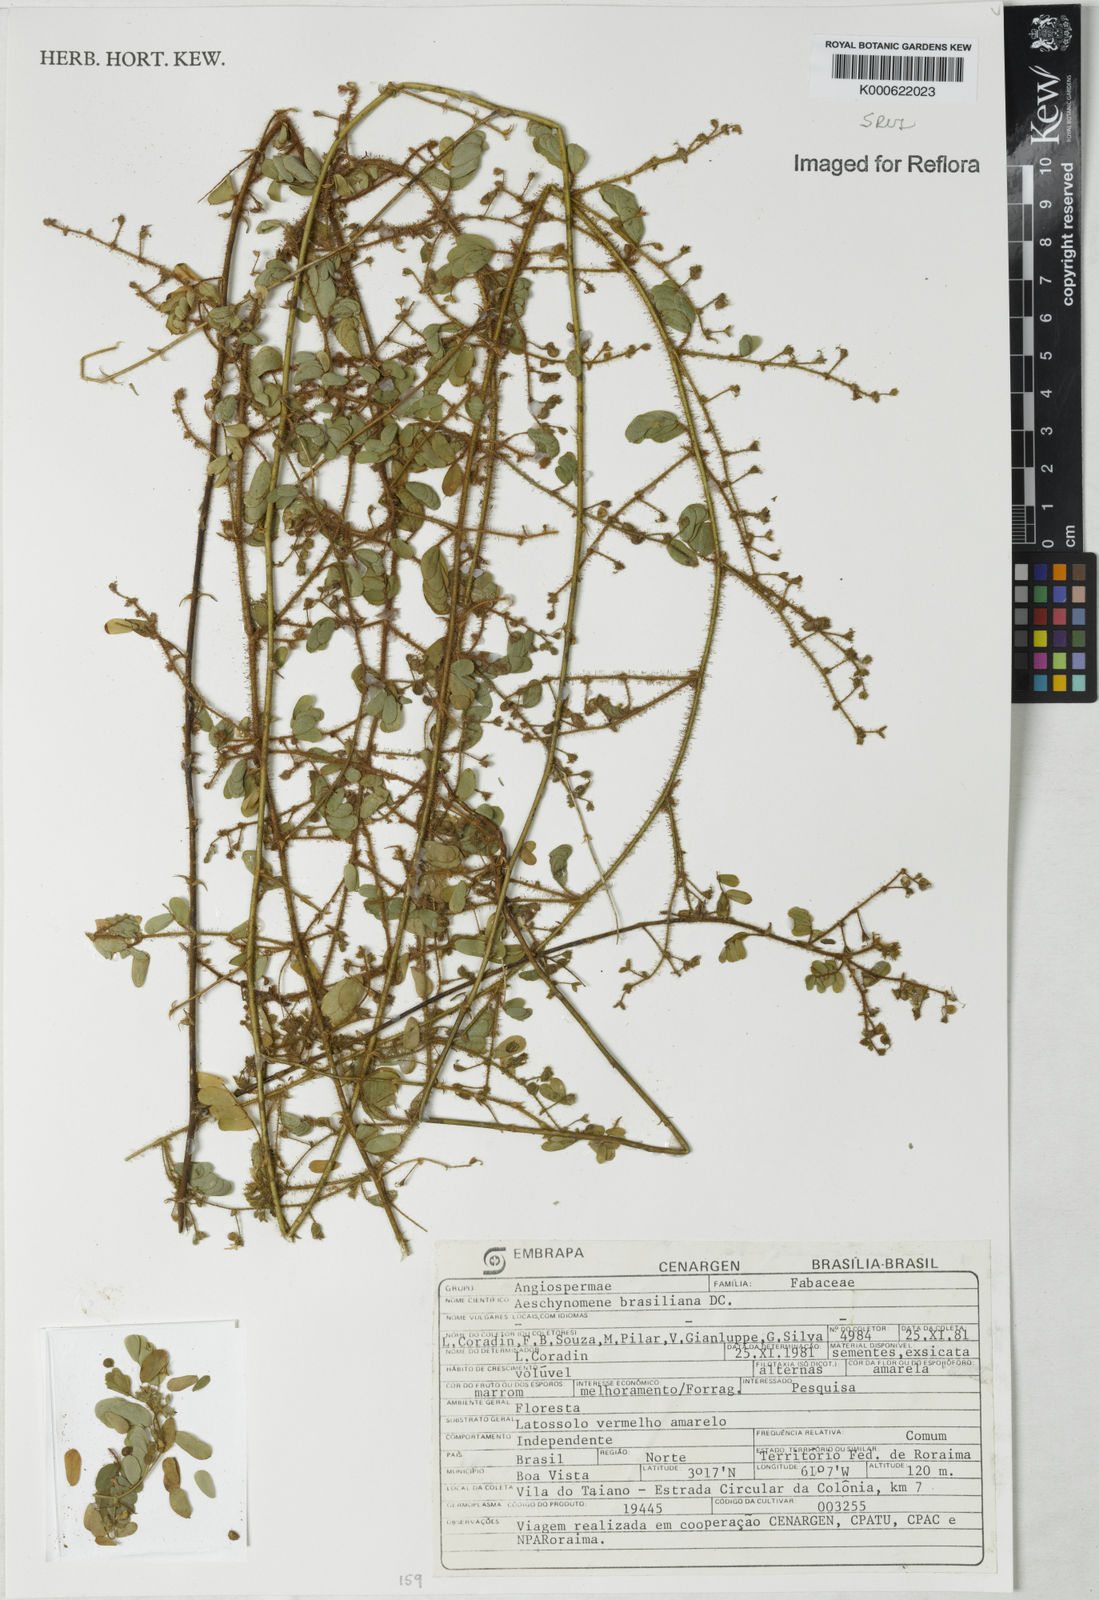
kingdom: Plantae
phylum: Tracheophyta
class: Magnoliopsida
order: Fabales
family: Fabaceae
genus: Ctenodon
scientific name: Ctenodon brasilianus
